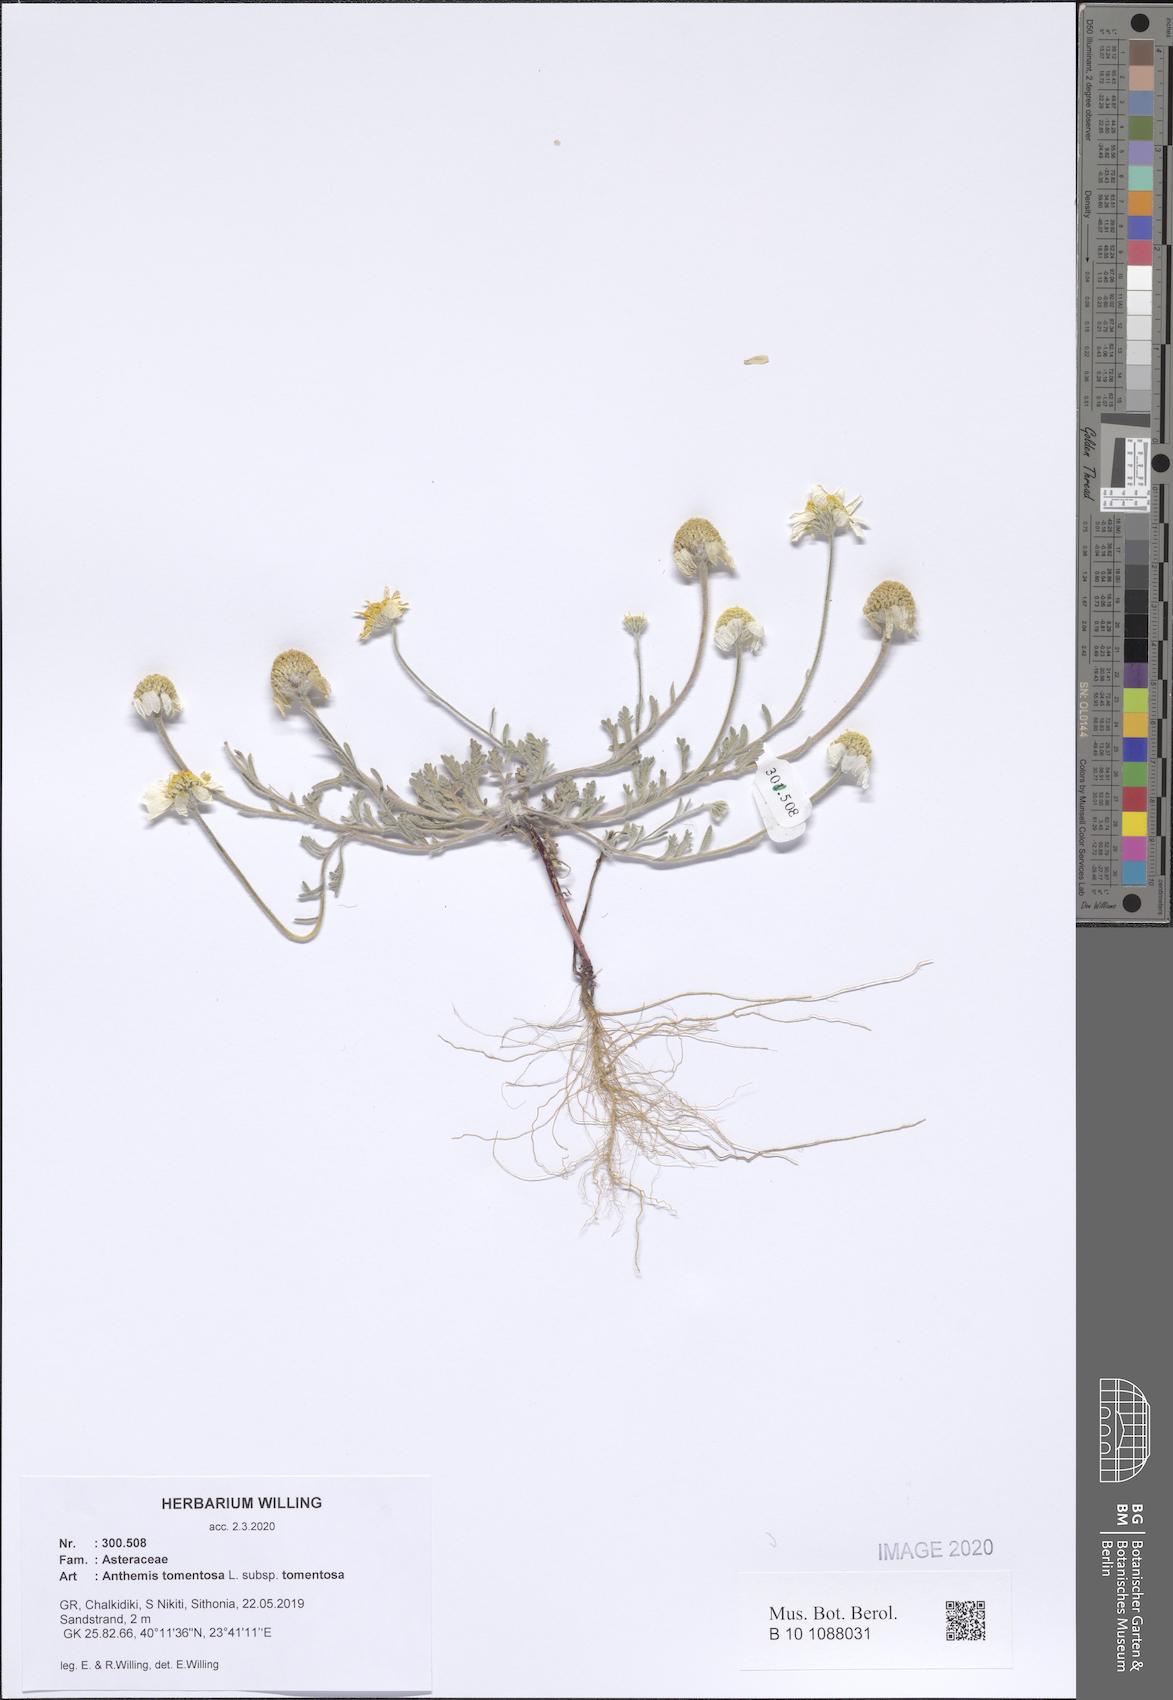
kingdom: Plantae
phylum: Tracheophyta
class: Magnoliopsida
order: Asterales
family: Asteraceae
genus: Anthemis
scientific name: Anthemis tomentosa
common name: Woolly chamomile
